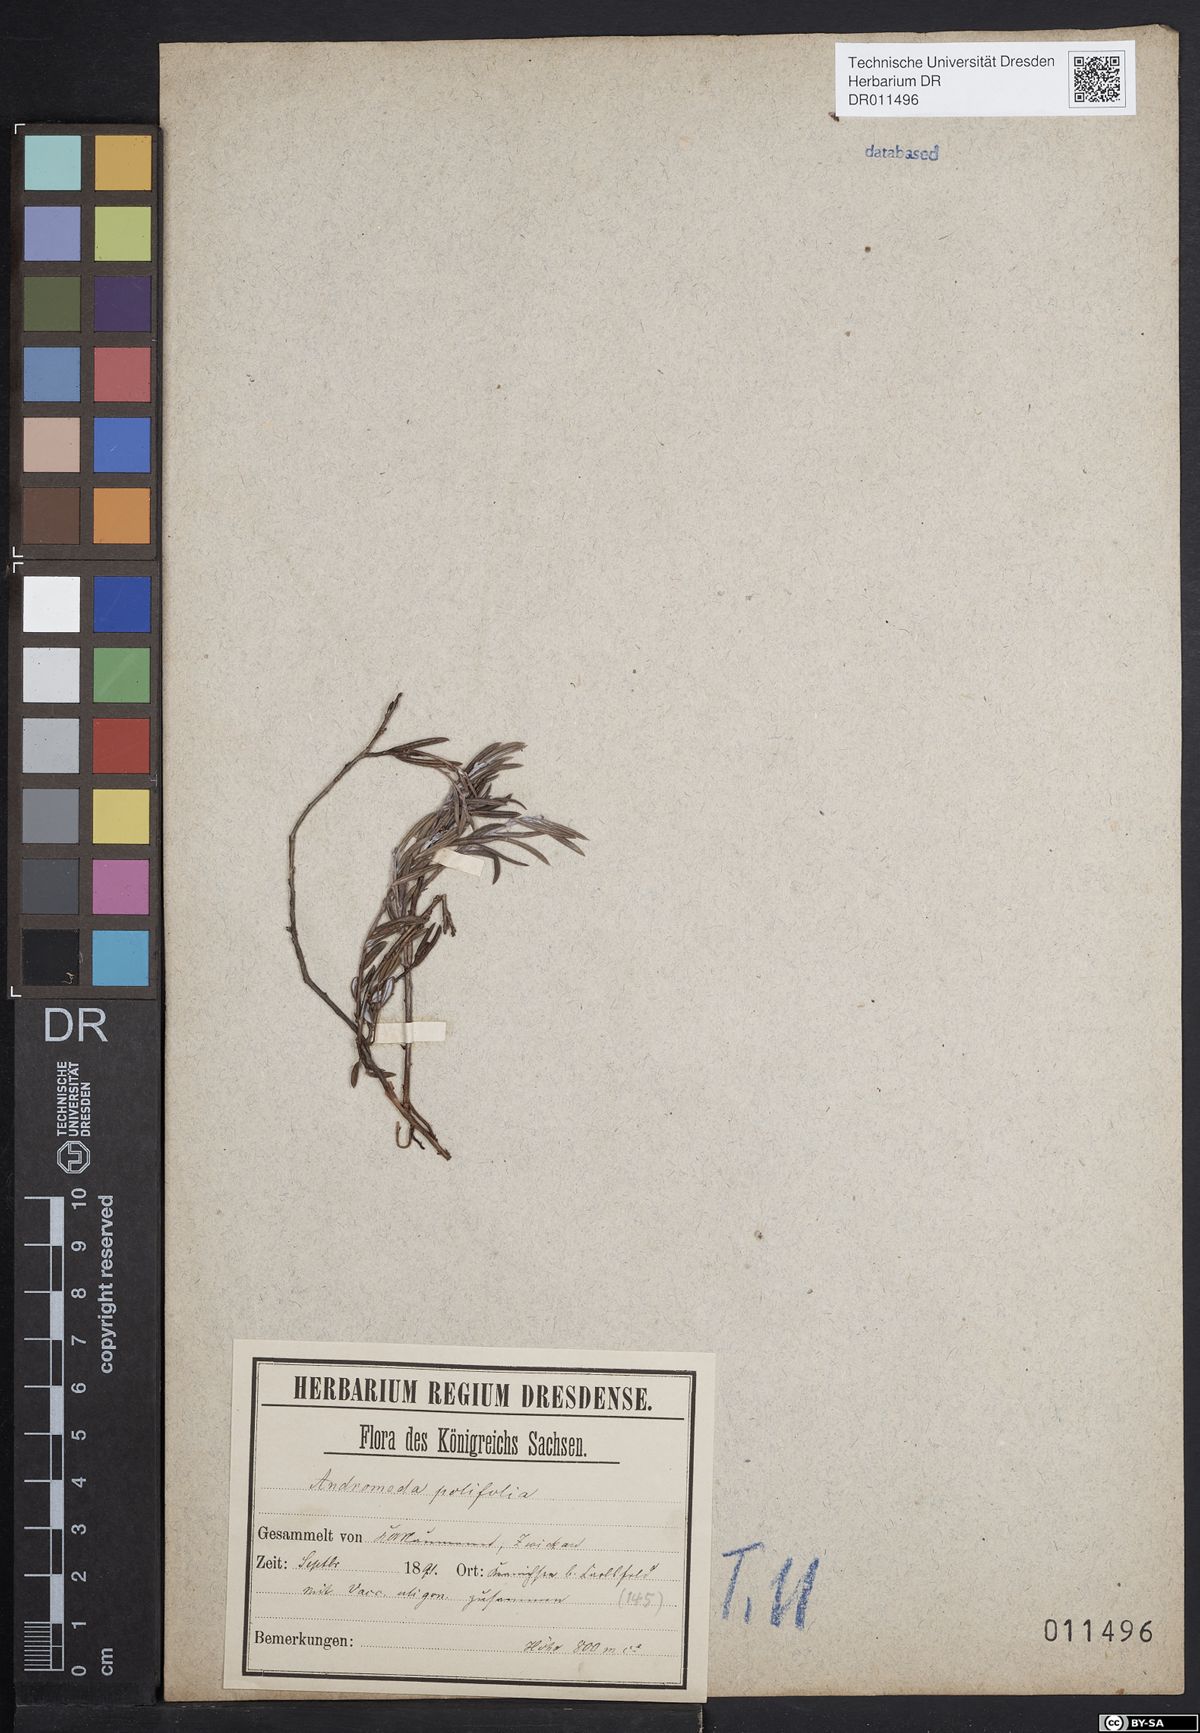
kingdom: Plantae
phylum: Tracheophyta
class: Magnoliopsida
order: Ericales
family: Ericaceae
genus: Andromeda
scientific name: Andromeda polifolia
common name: Bog-rosemary
